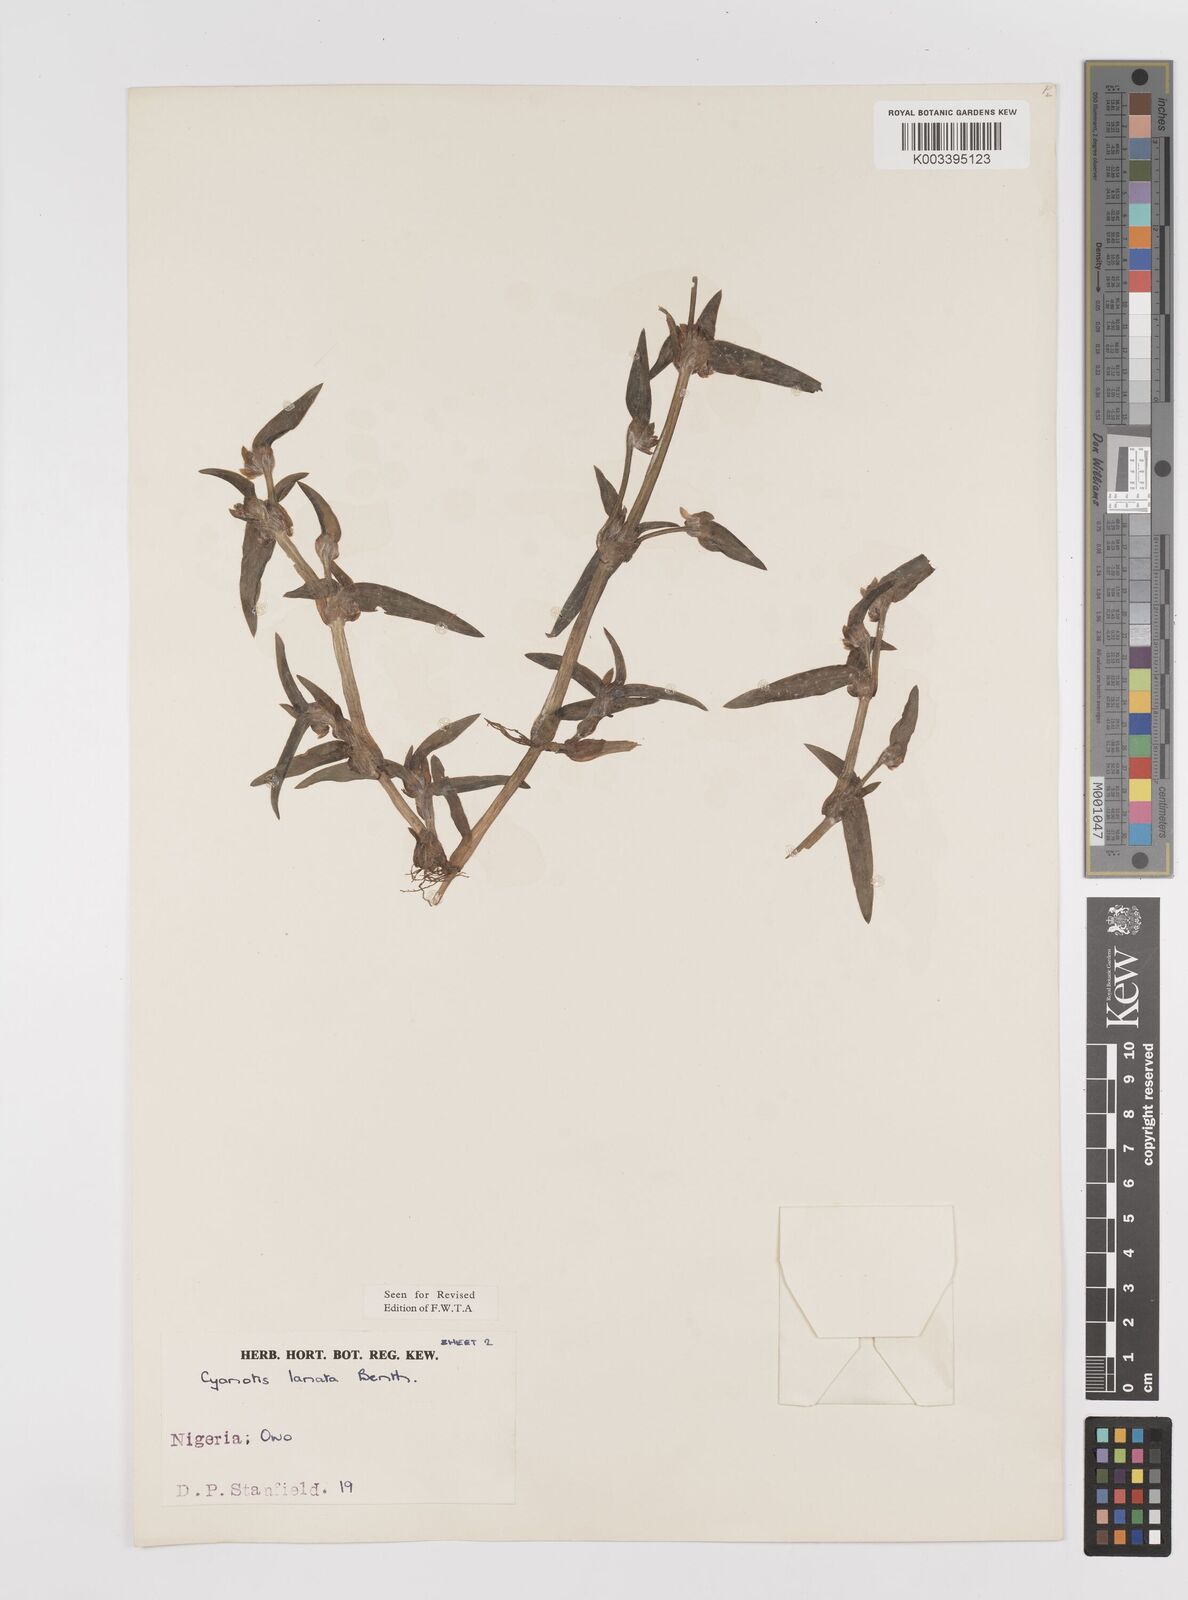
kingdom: Plantae
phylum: Tracheophyta
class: Liliopsida
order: Commelinales
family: Commelinaceae
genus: Cyanotis
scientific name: Cyanotis lanata
